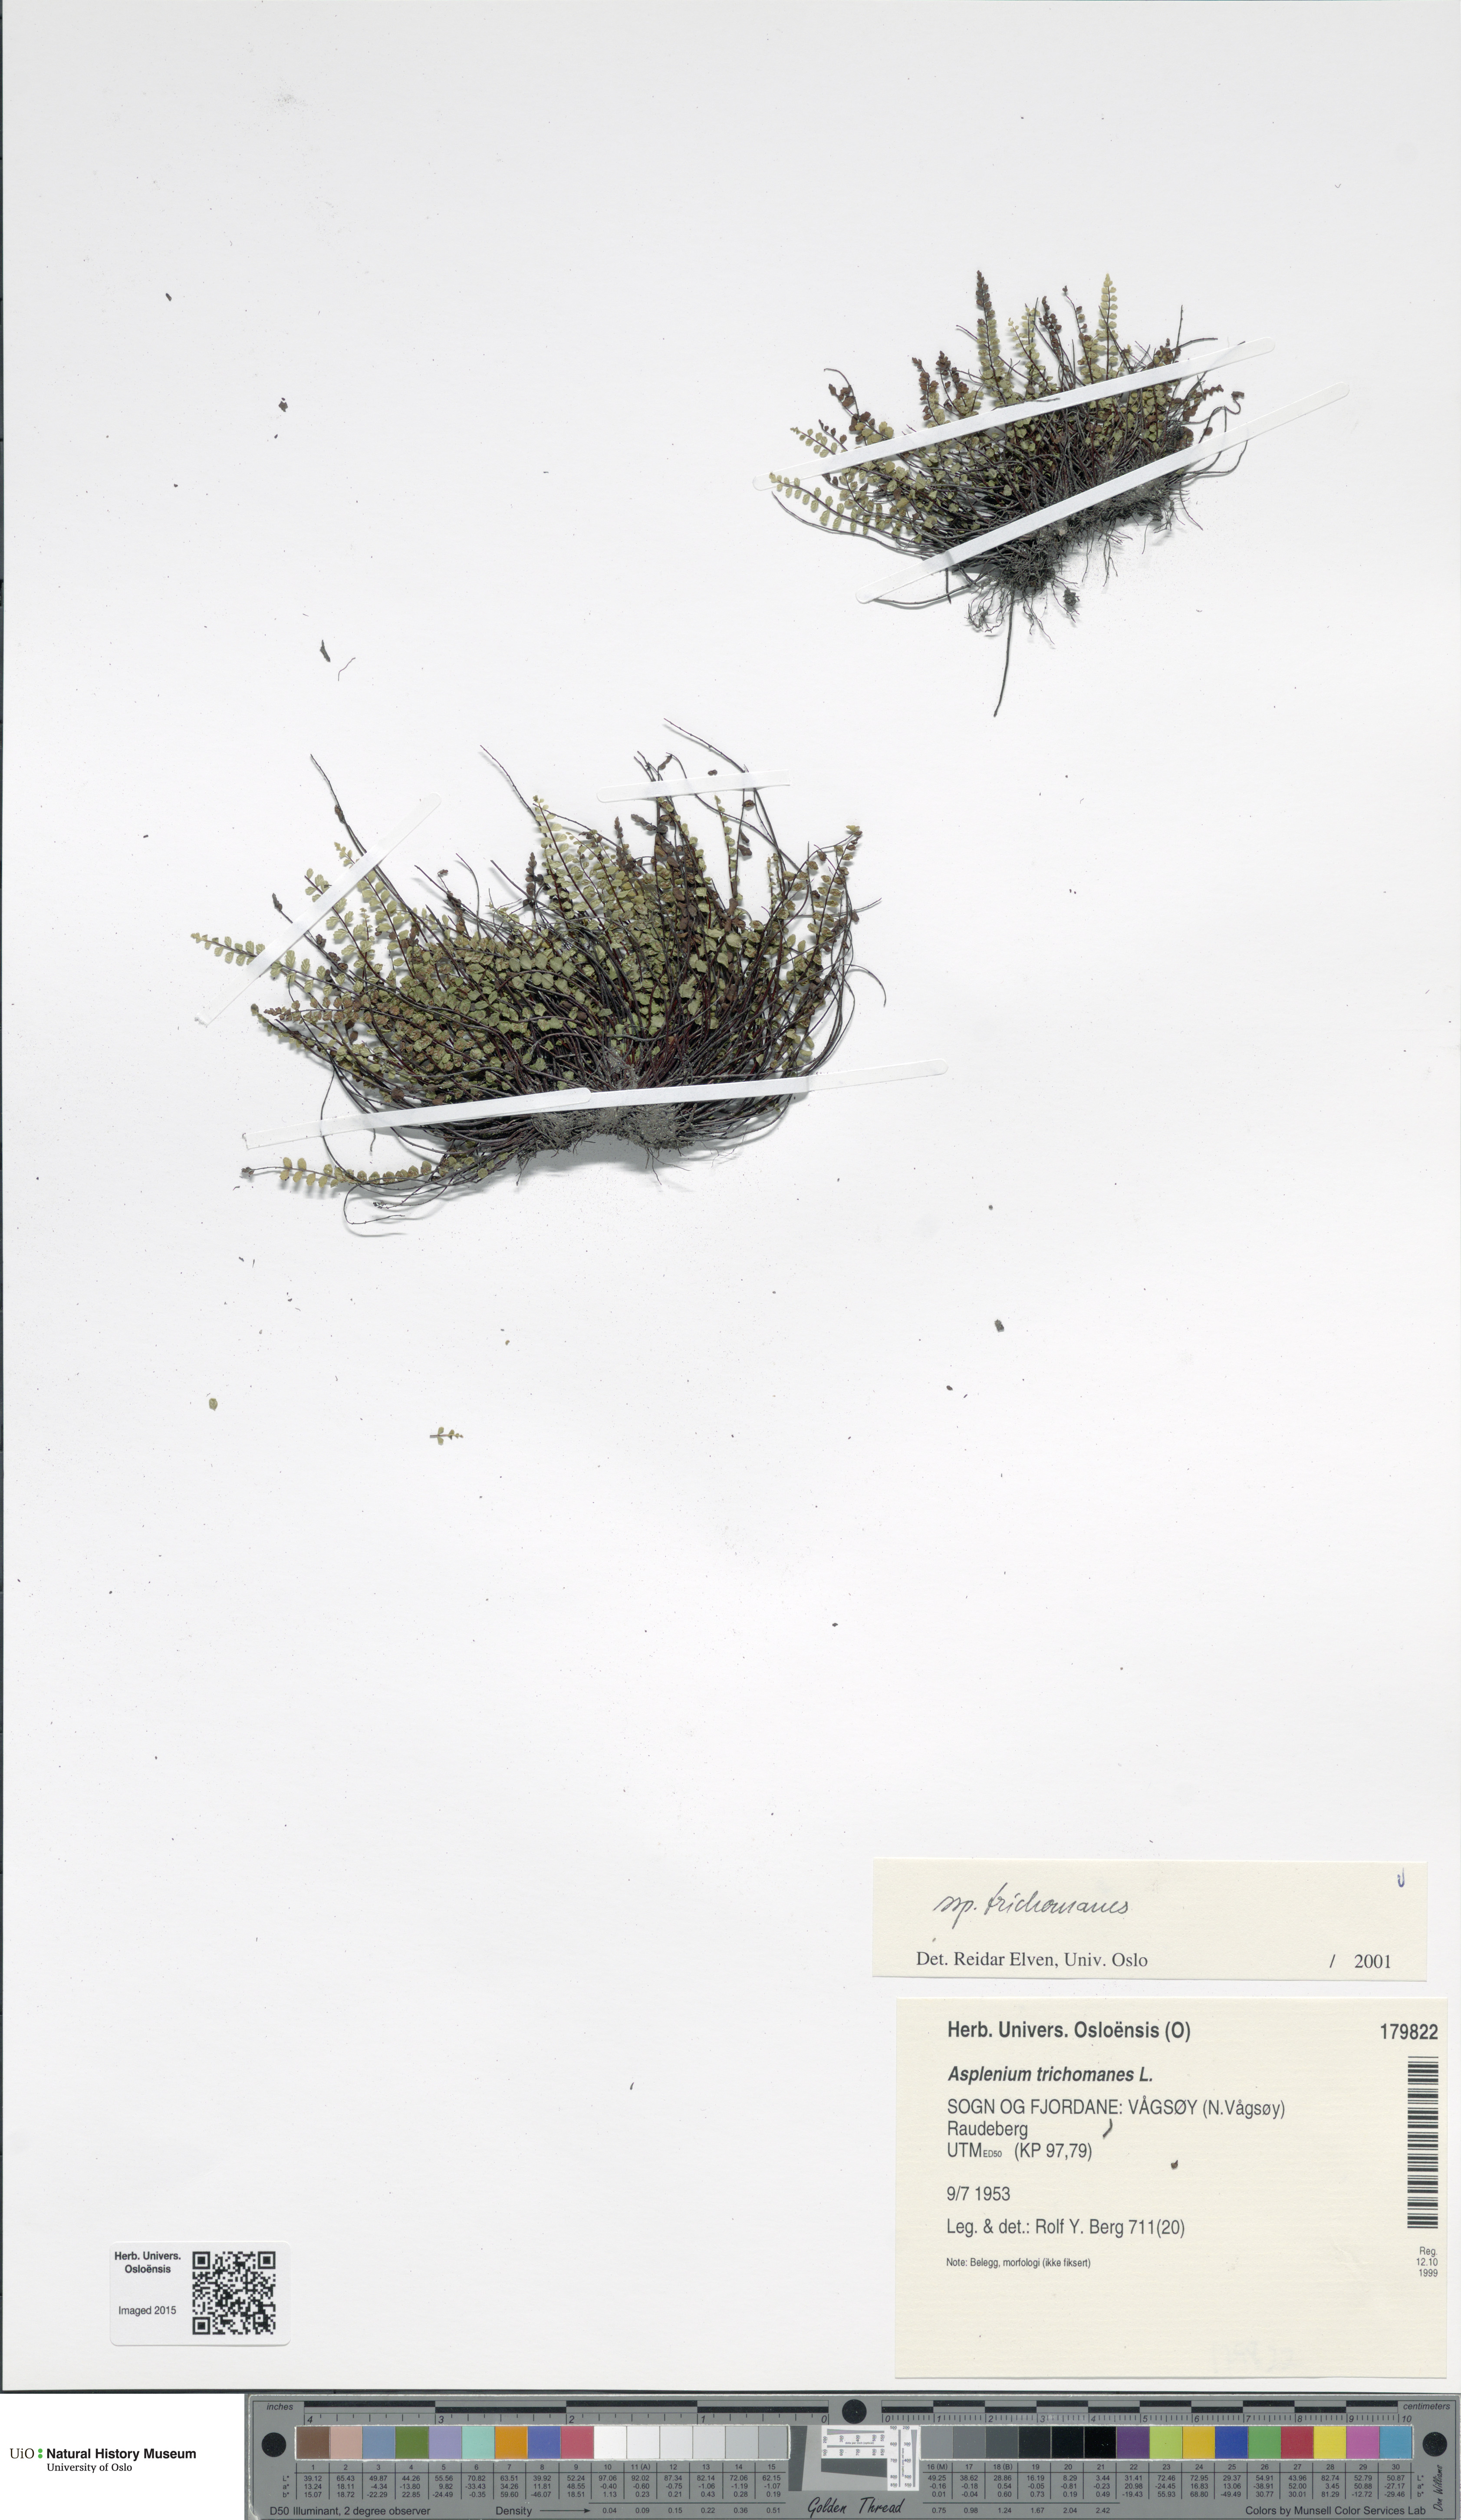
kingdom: Plantae
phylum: Tracheophyta
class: Polypodiopsida
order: Polypodiales
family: Aspleniaceae
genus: Asplenium
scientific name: Asplenium trichomanes
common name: Maidenhair spleenwort
